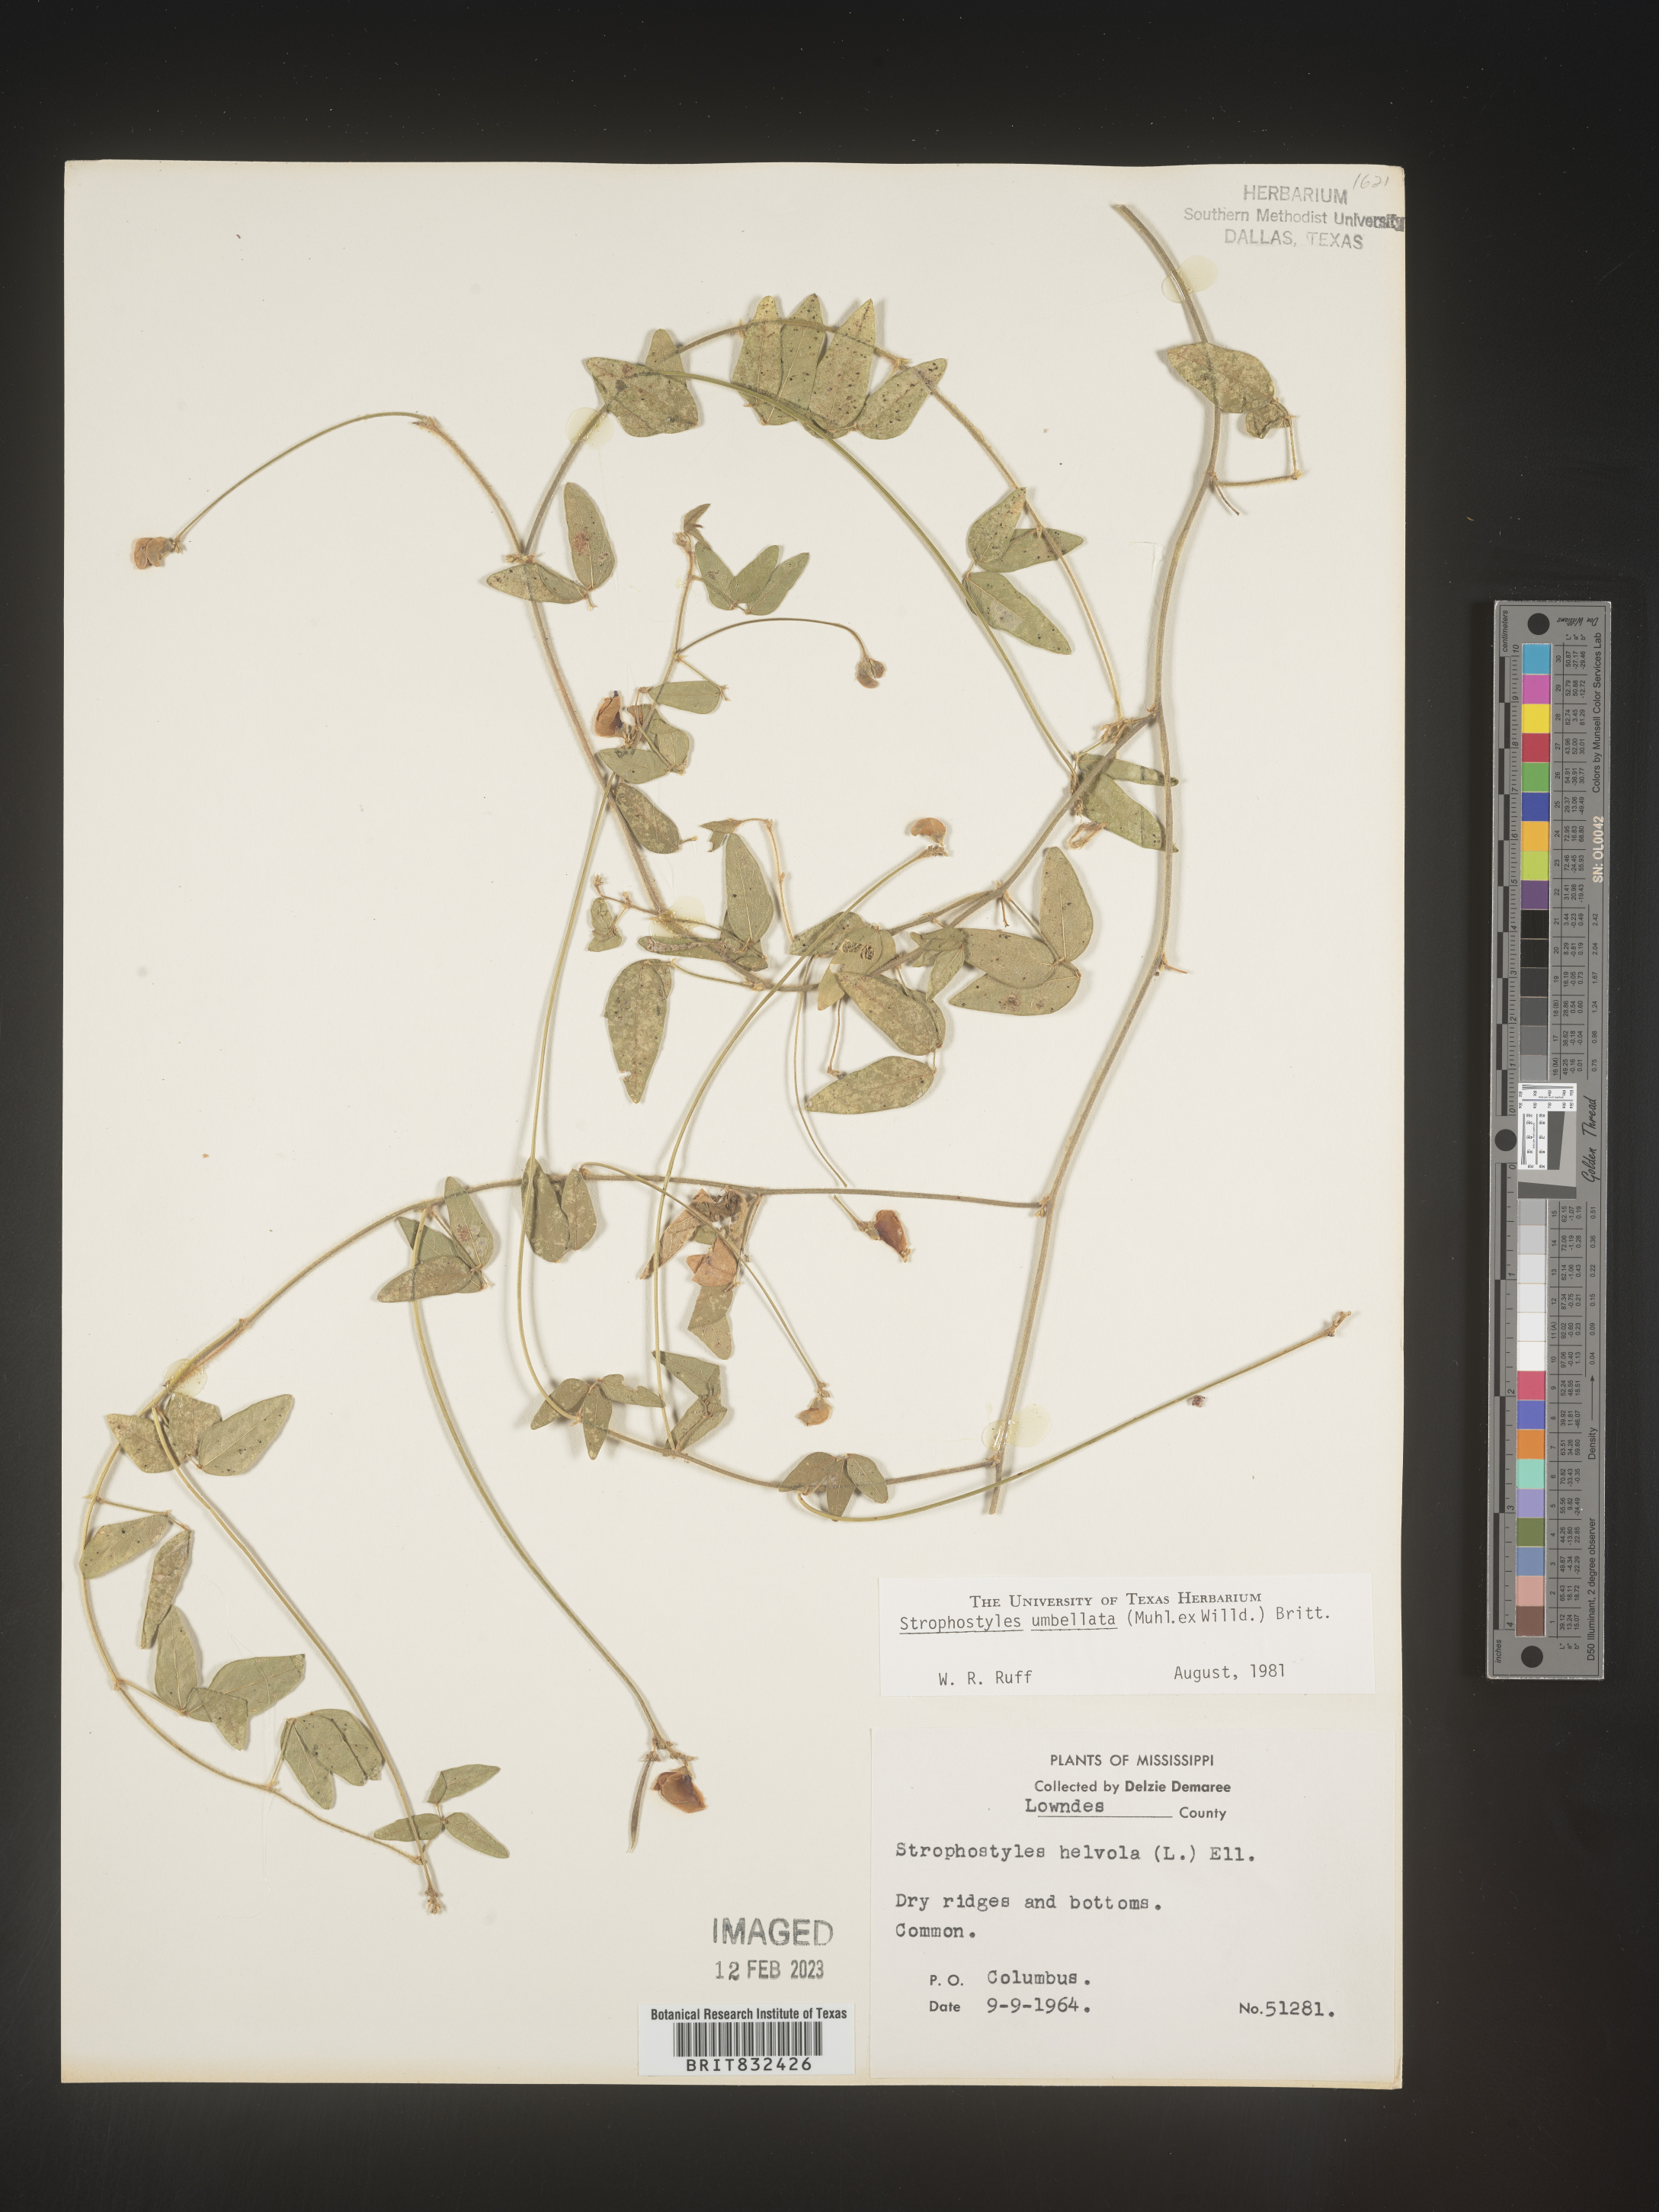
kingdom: Plantae
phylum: Tracheophyta
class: Magnoliopsida
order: Fabales
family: Fabaceae
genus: Strophostyles
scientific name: Strophostyles umbellata
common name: Perennial wild bean
